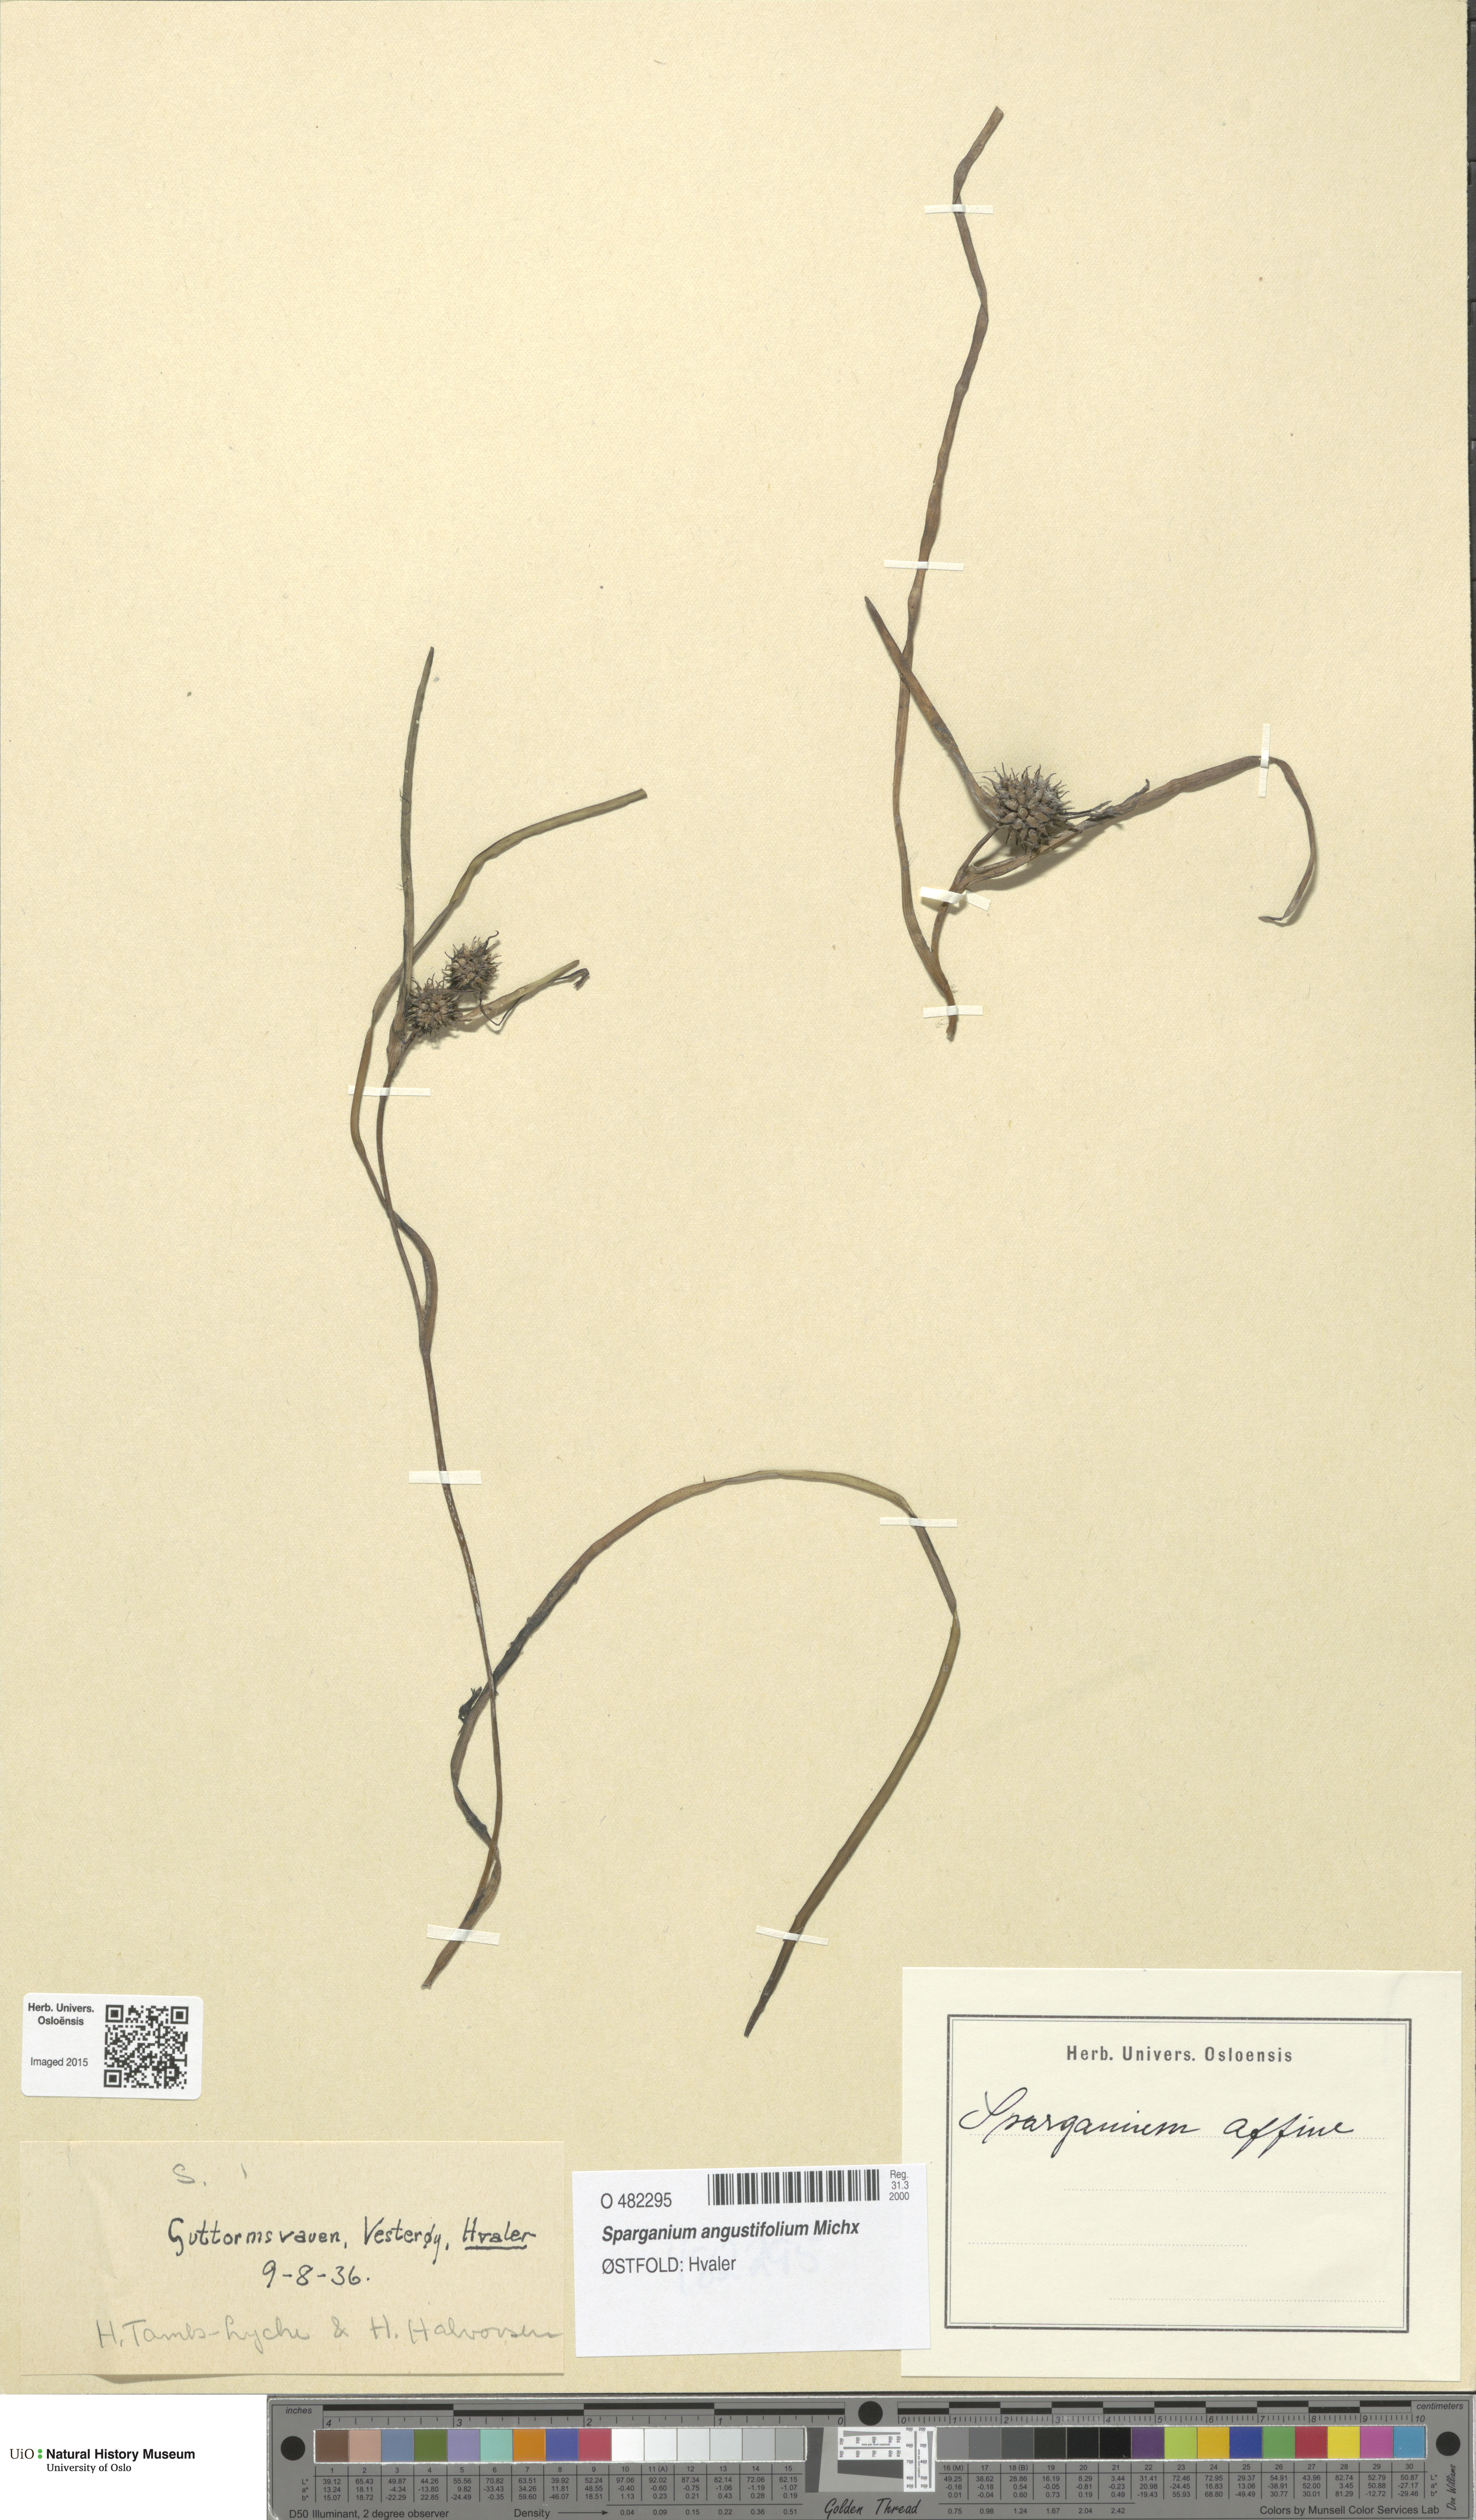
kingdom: Plantae
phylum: Tracheophyta
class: Liliopsida
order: Poales
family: Typhaceae
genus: Sparganium
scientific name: Sparganium angustifolium
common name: Floating bur-reed
